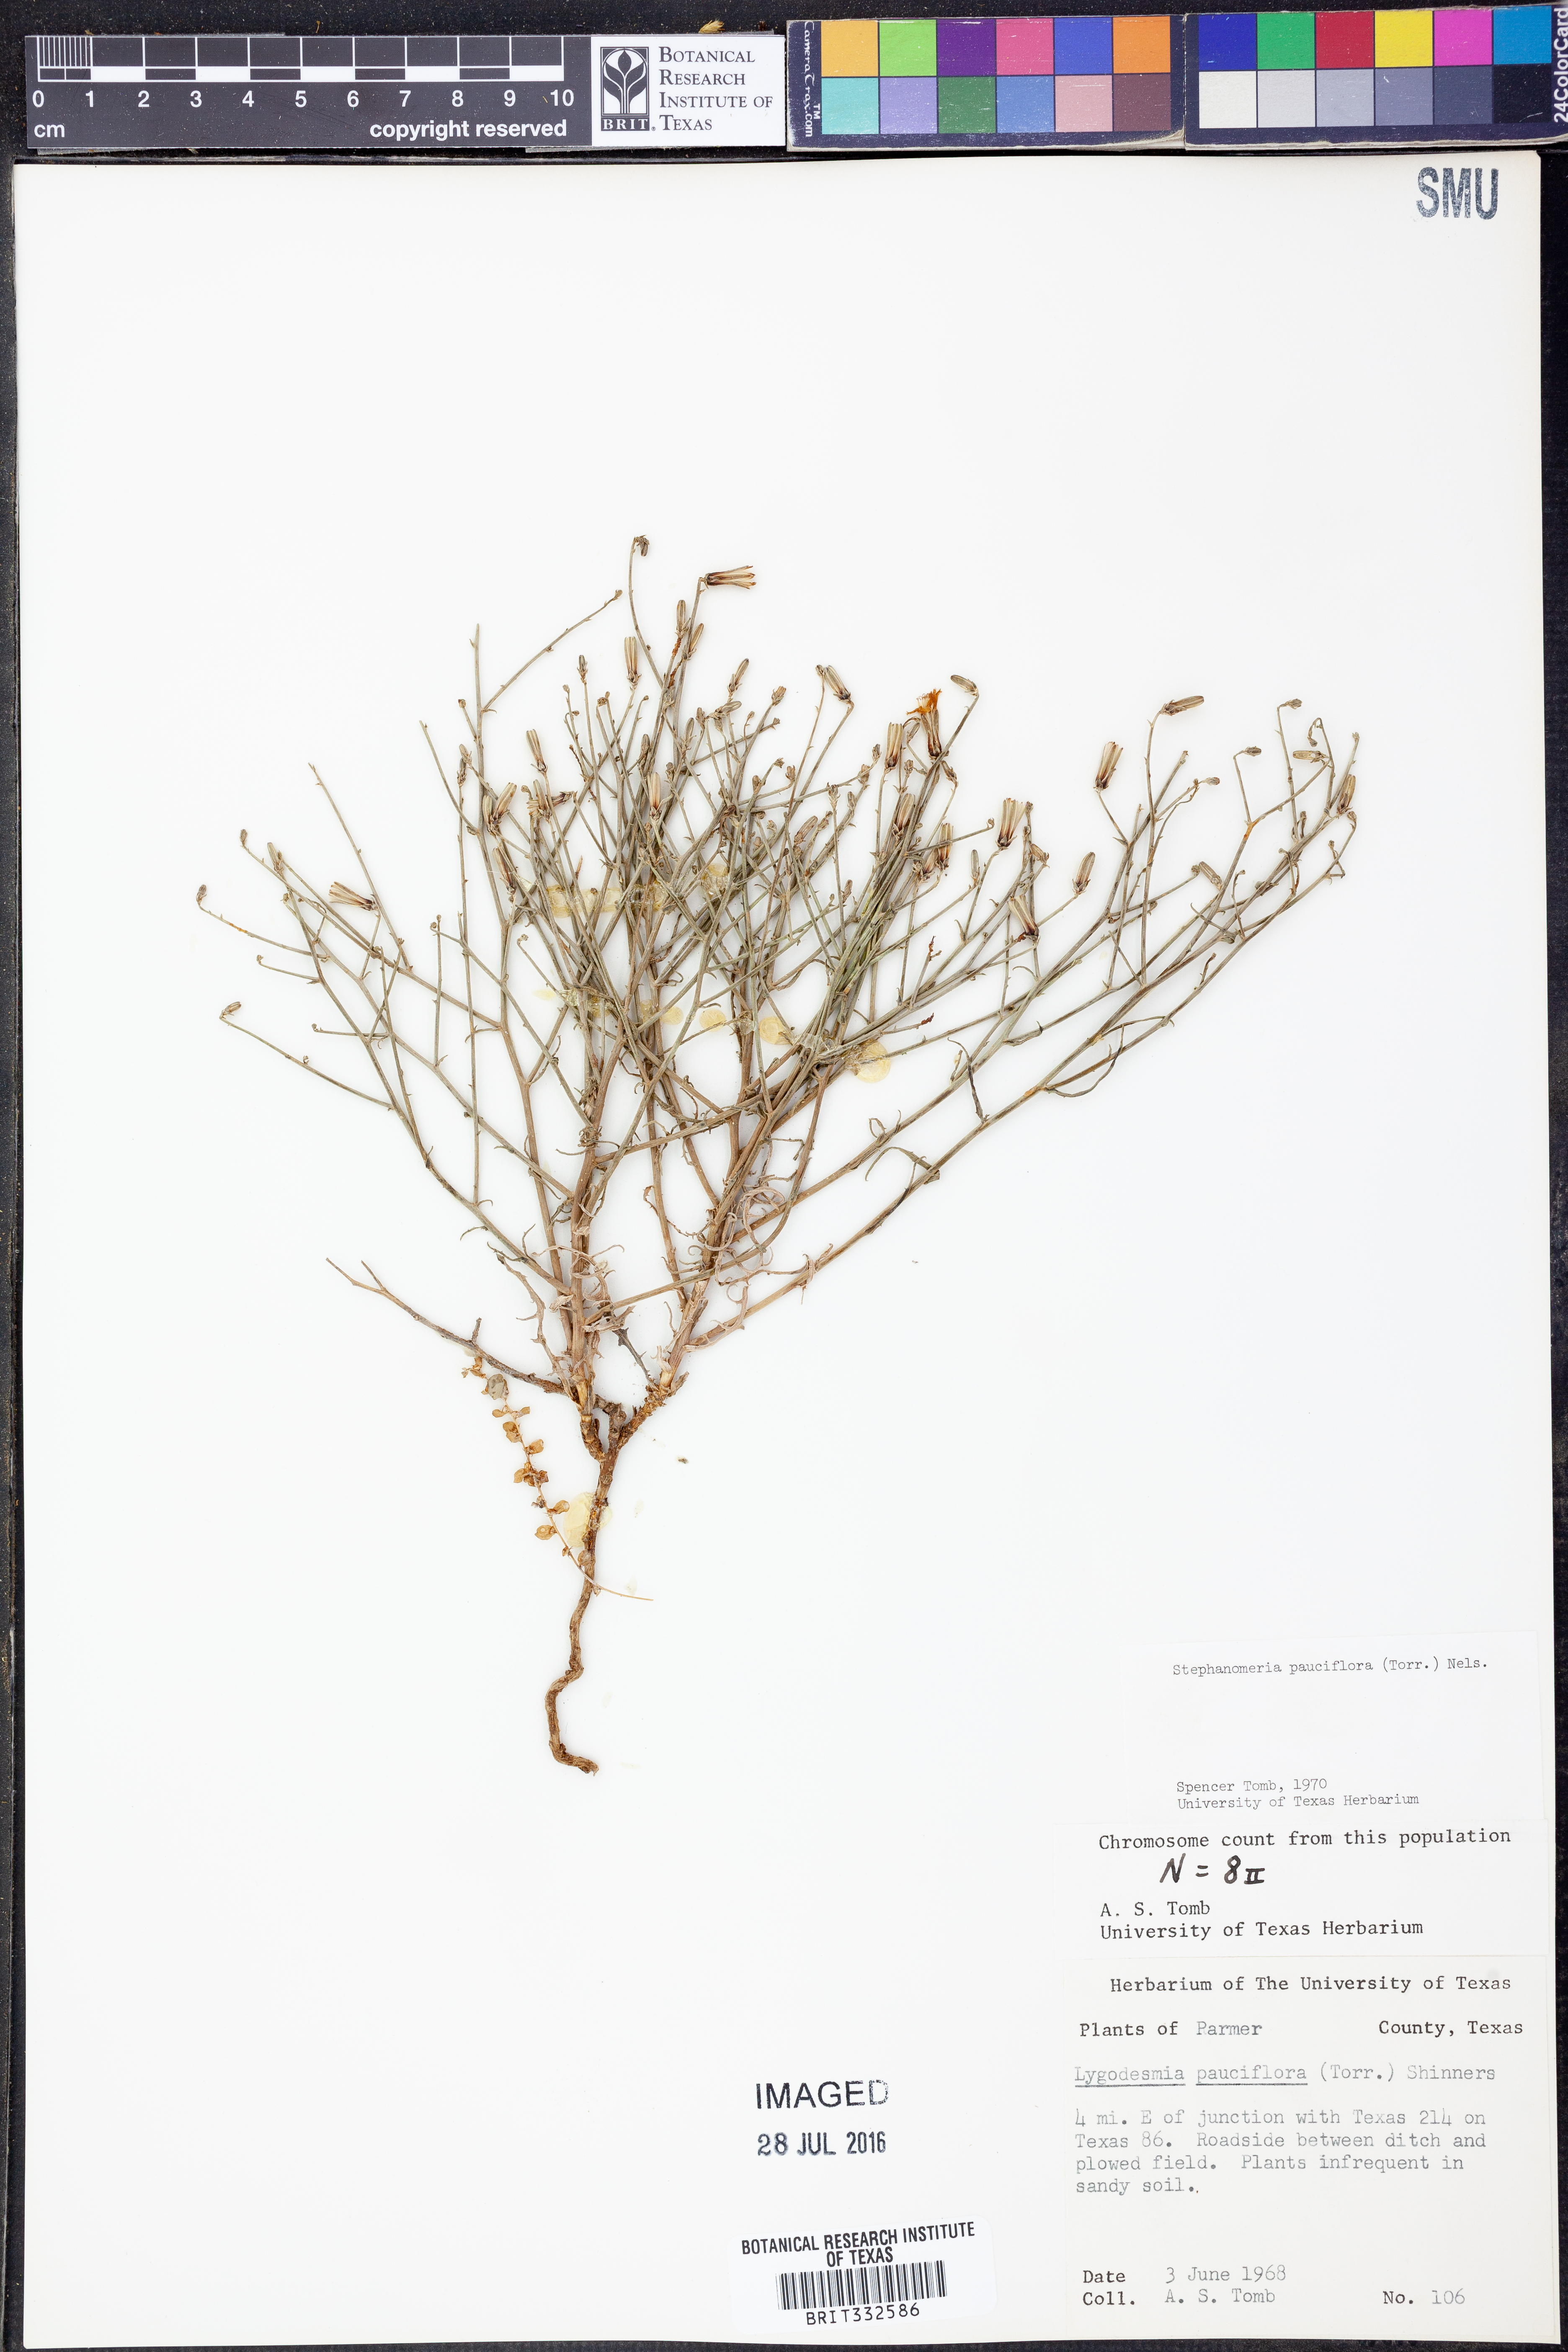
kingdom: Plantae
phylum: Tracheophyta
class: Magnoliopsida
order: Asterales
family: Asteraceae
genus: Stephanomeria
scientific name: Stephanomeria pauciflora
